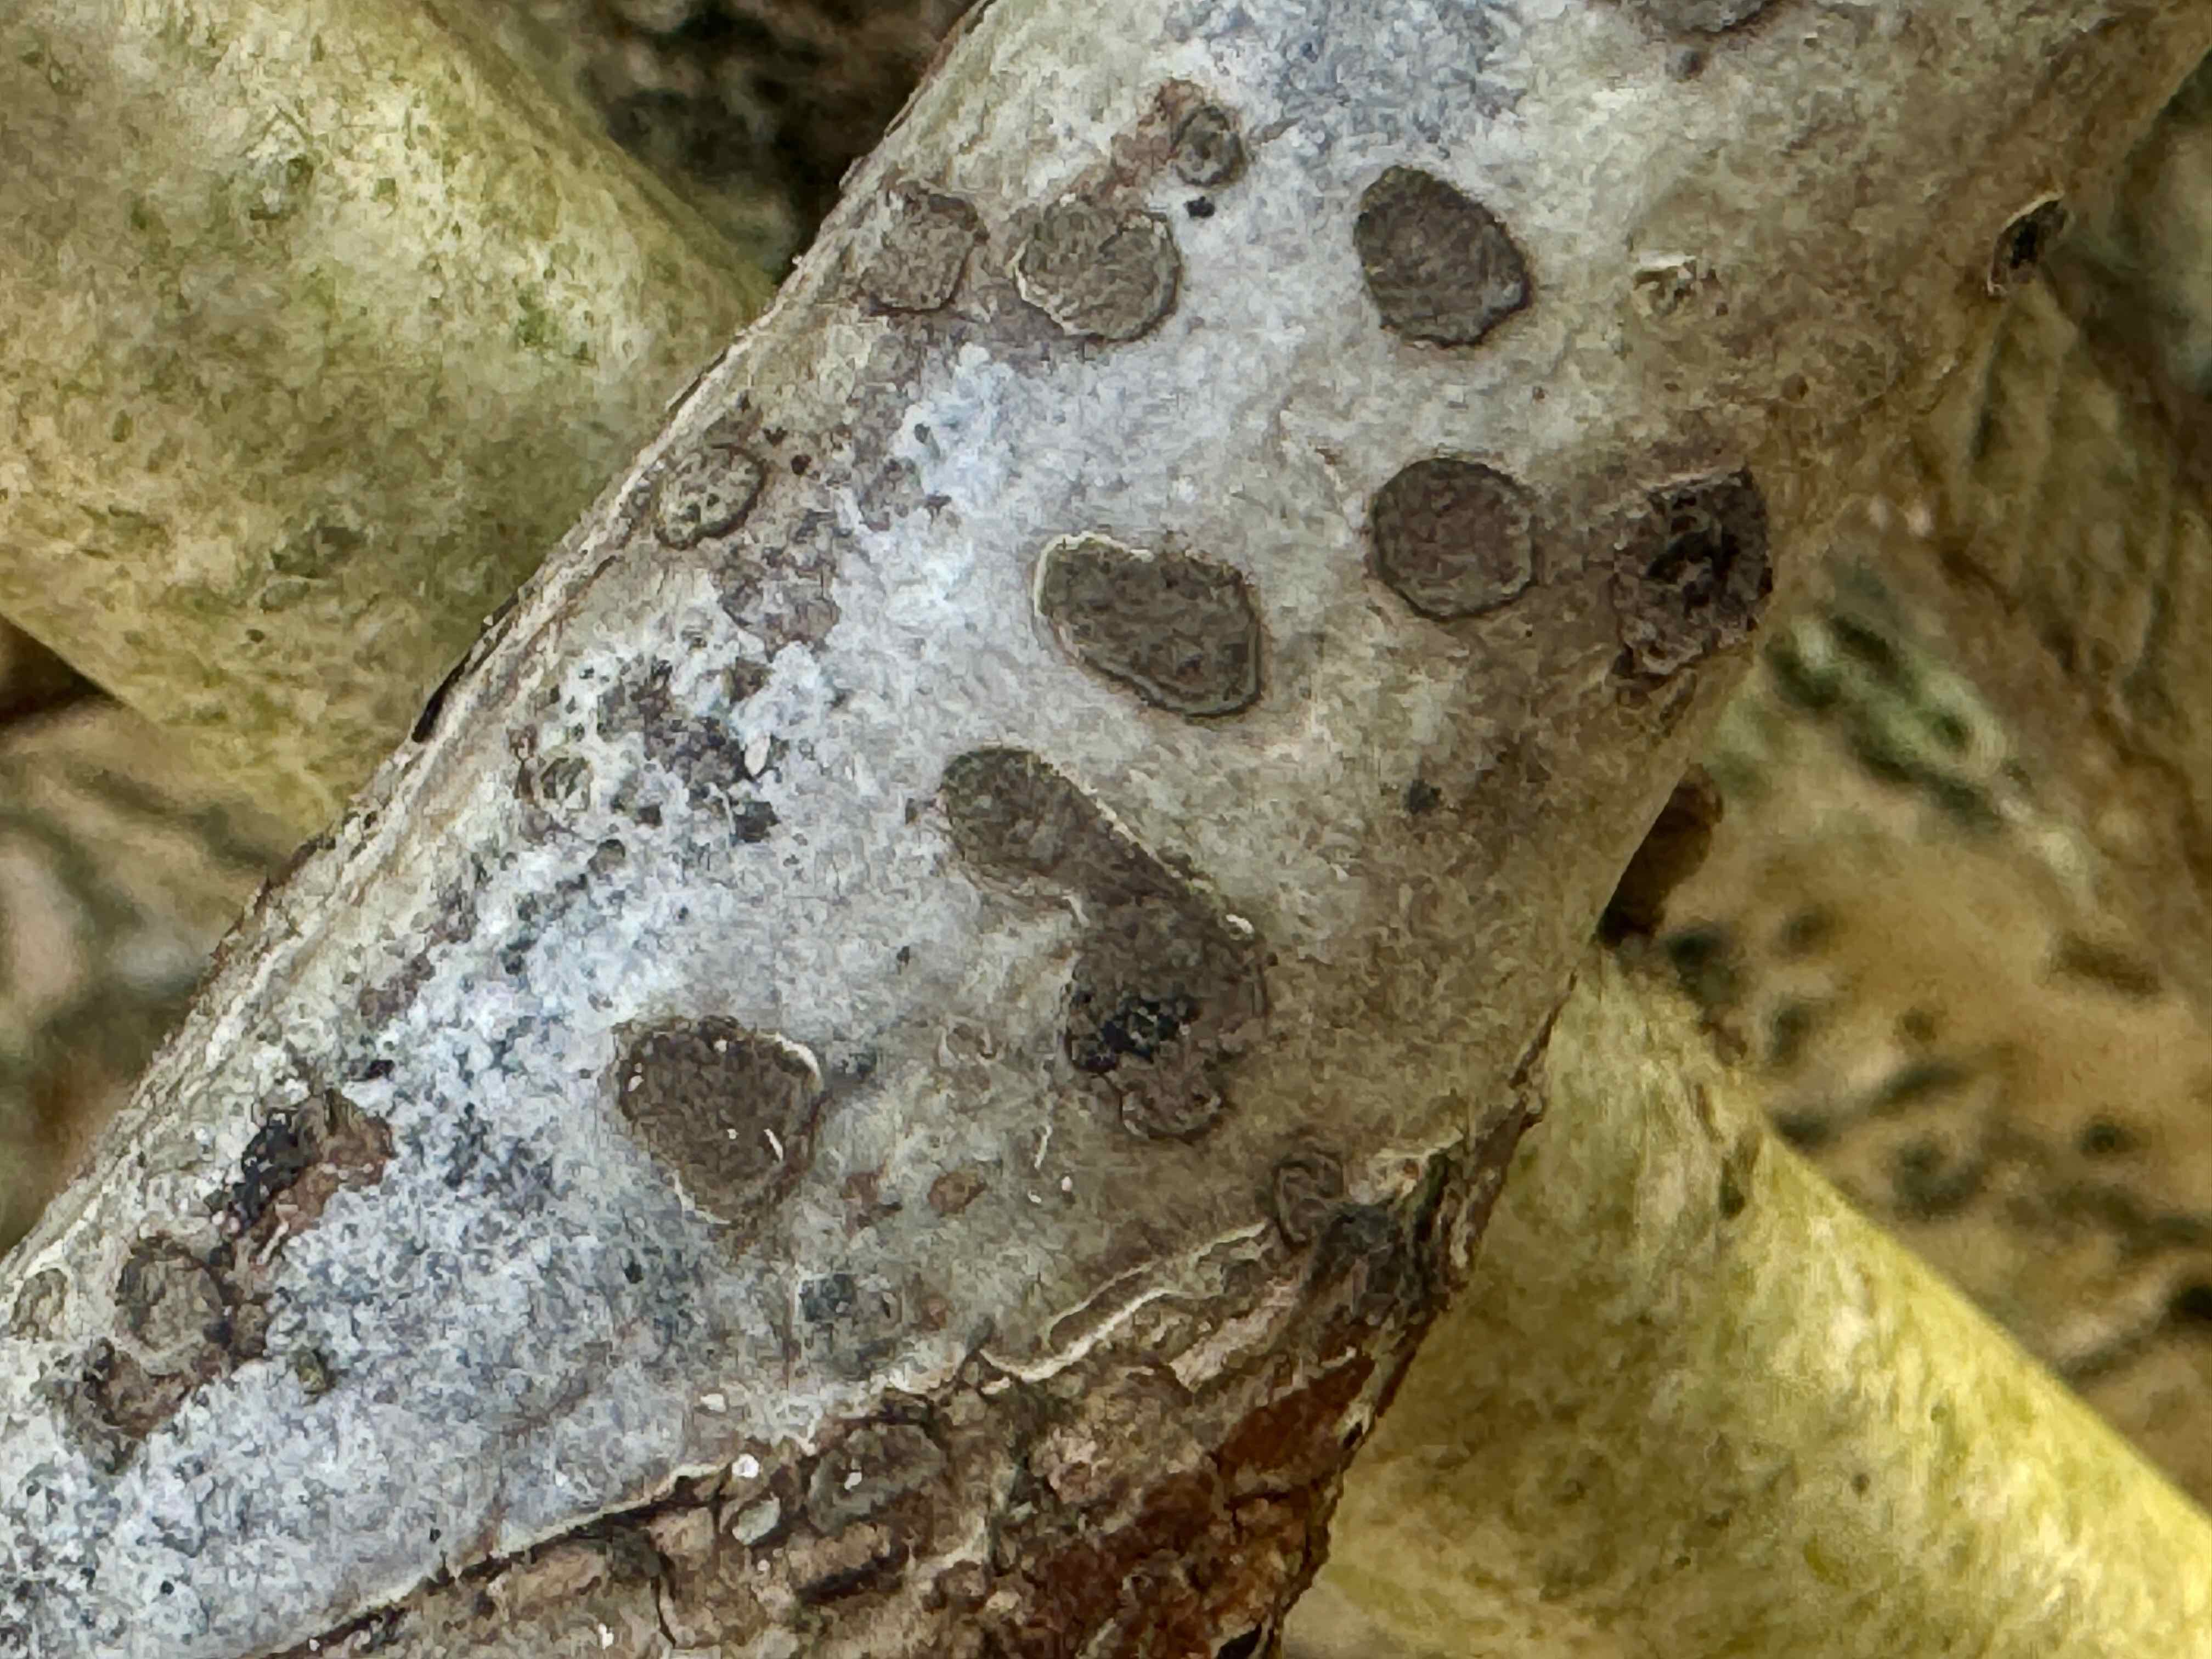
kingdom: Fungi
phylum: Ascomycota
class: Sordariomycetes
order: Xylariales
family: Hypoxylaceae
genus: Hypoxylon
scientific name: Hypoxylon fuscum
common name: kegleformet kulbær
